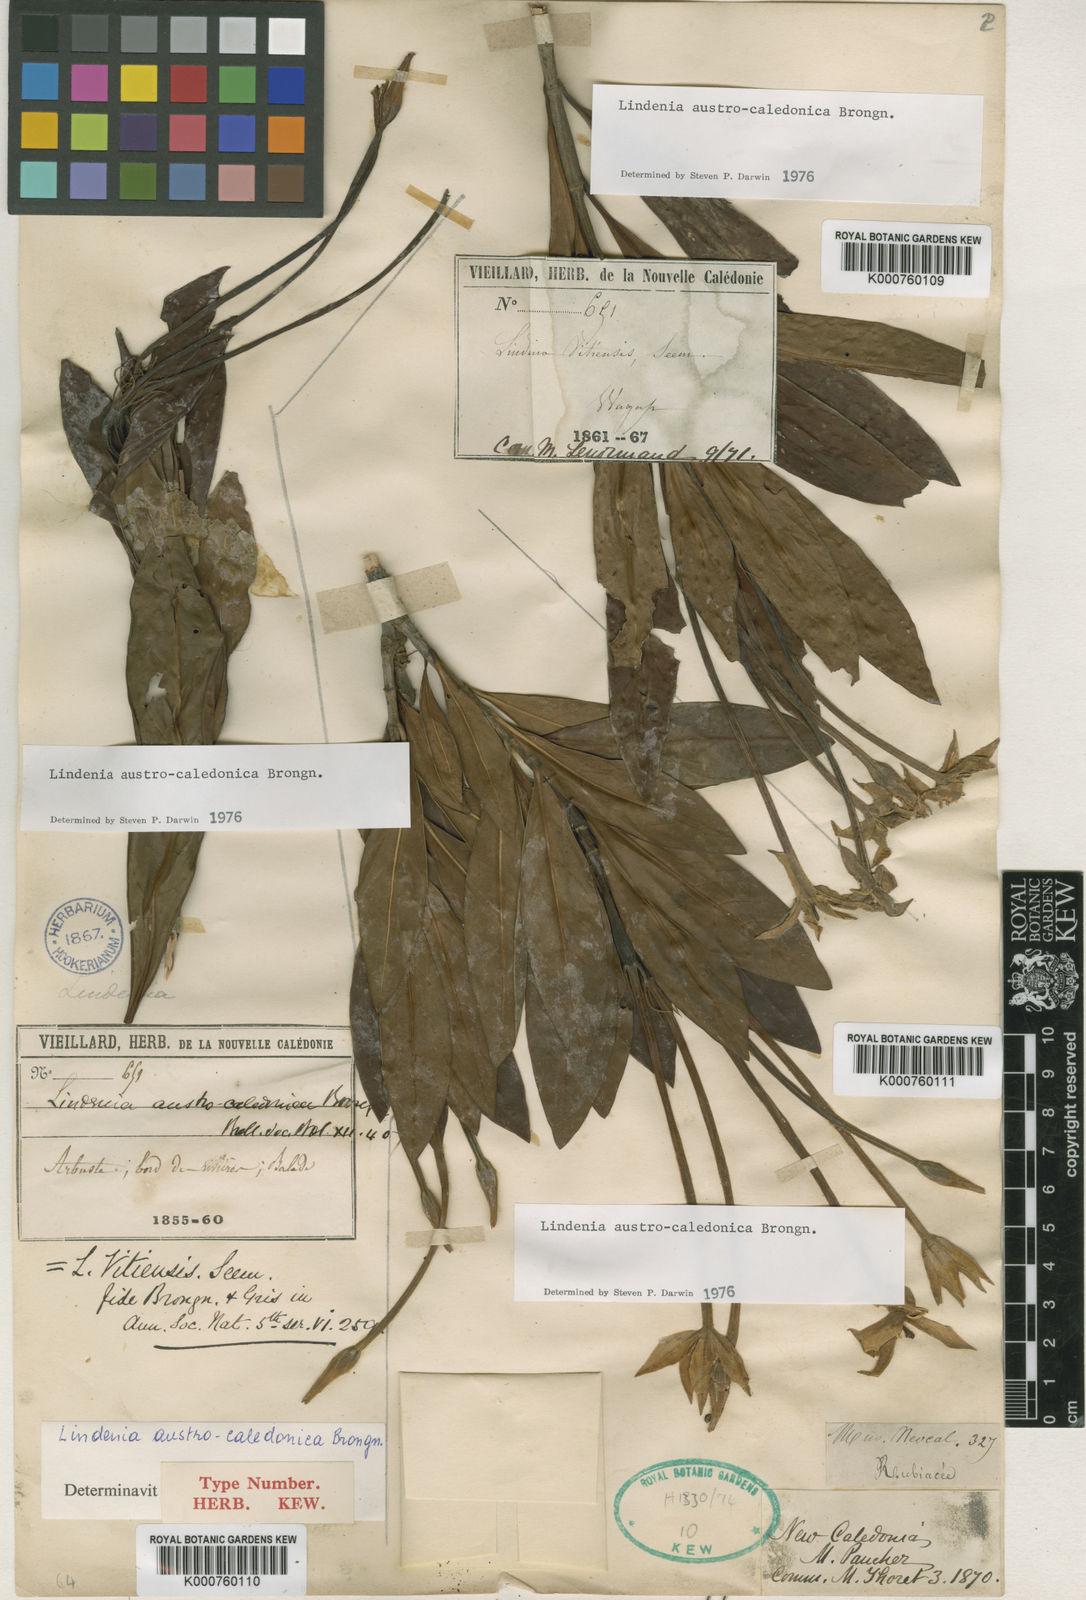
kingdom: Plantae
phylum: Tracheophyta
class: Magnoliopsida
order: Gentianales
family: Rubiaceae
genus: Augusta
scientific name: Augusta austrocaledonica
